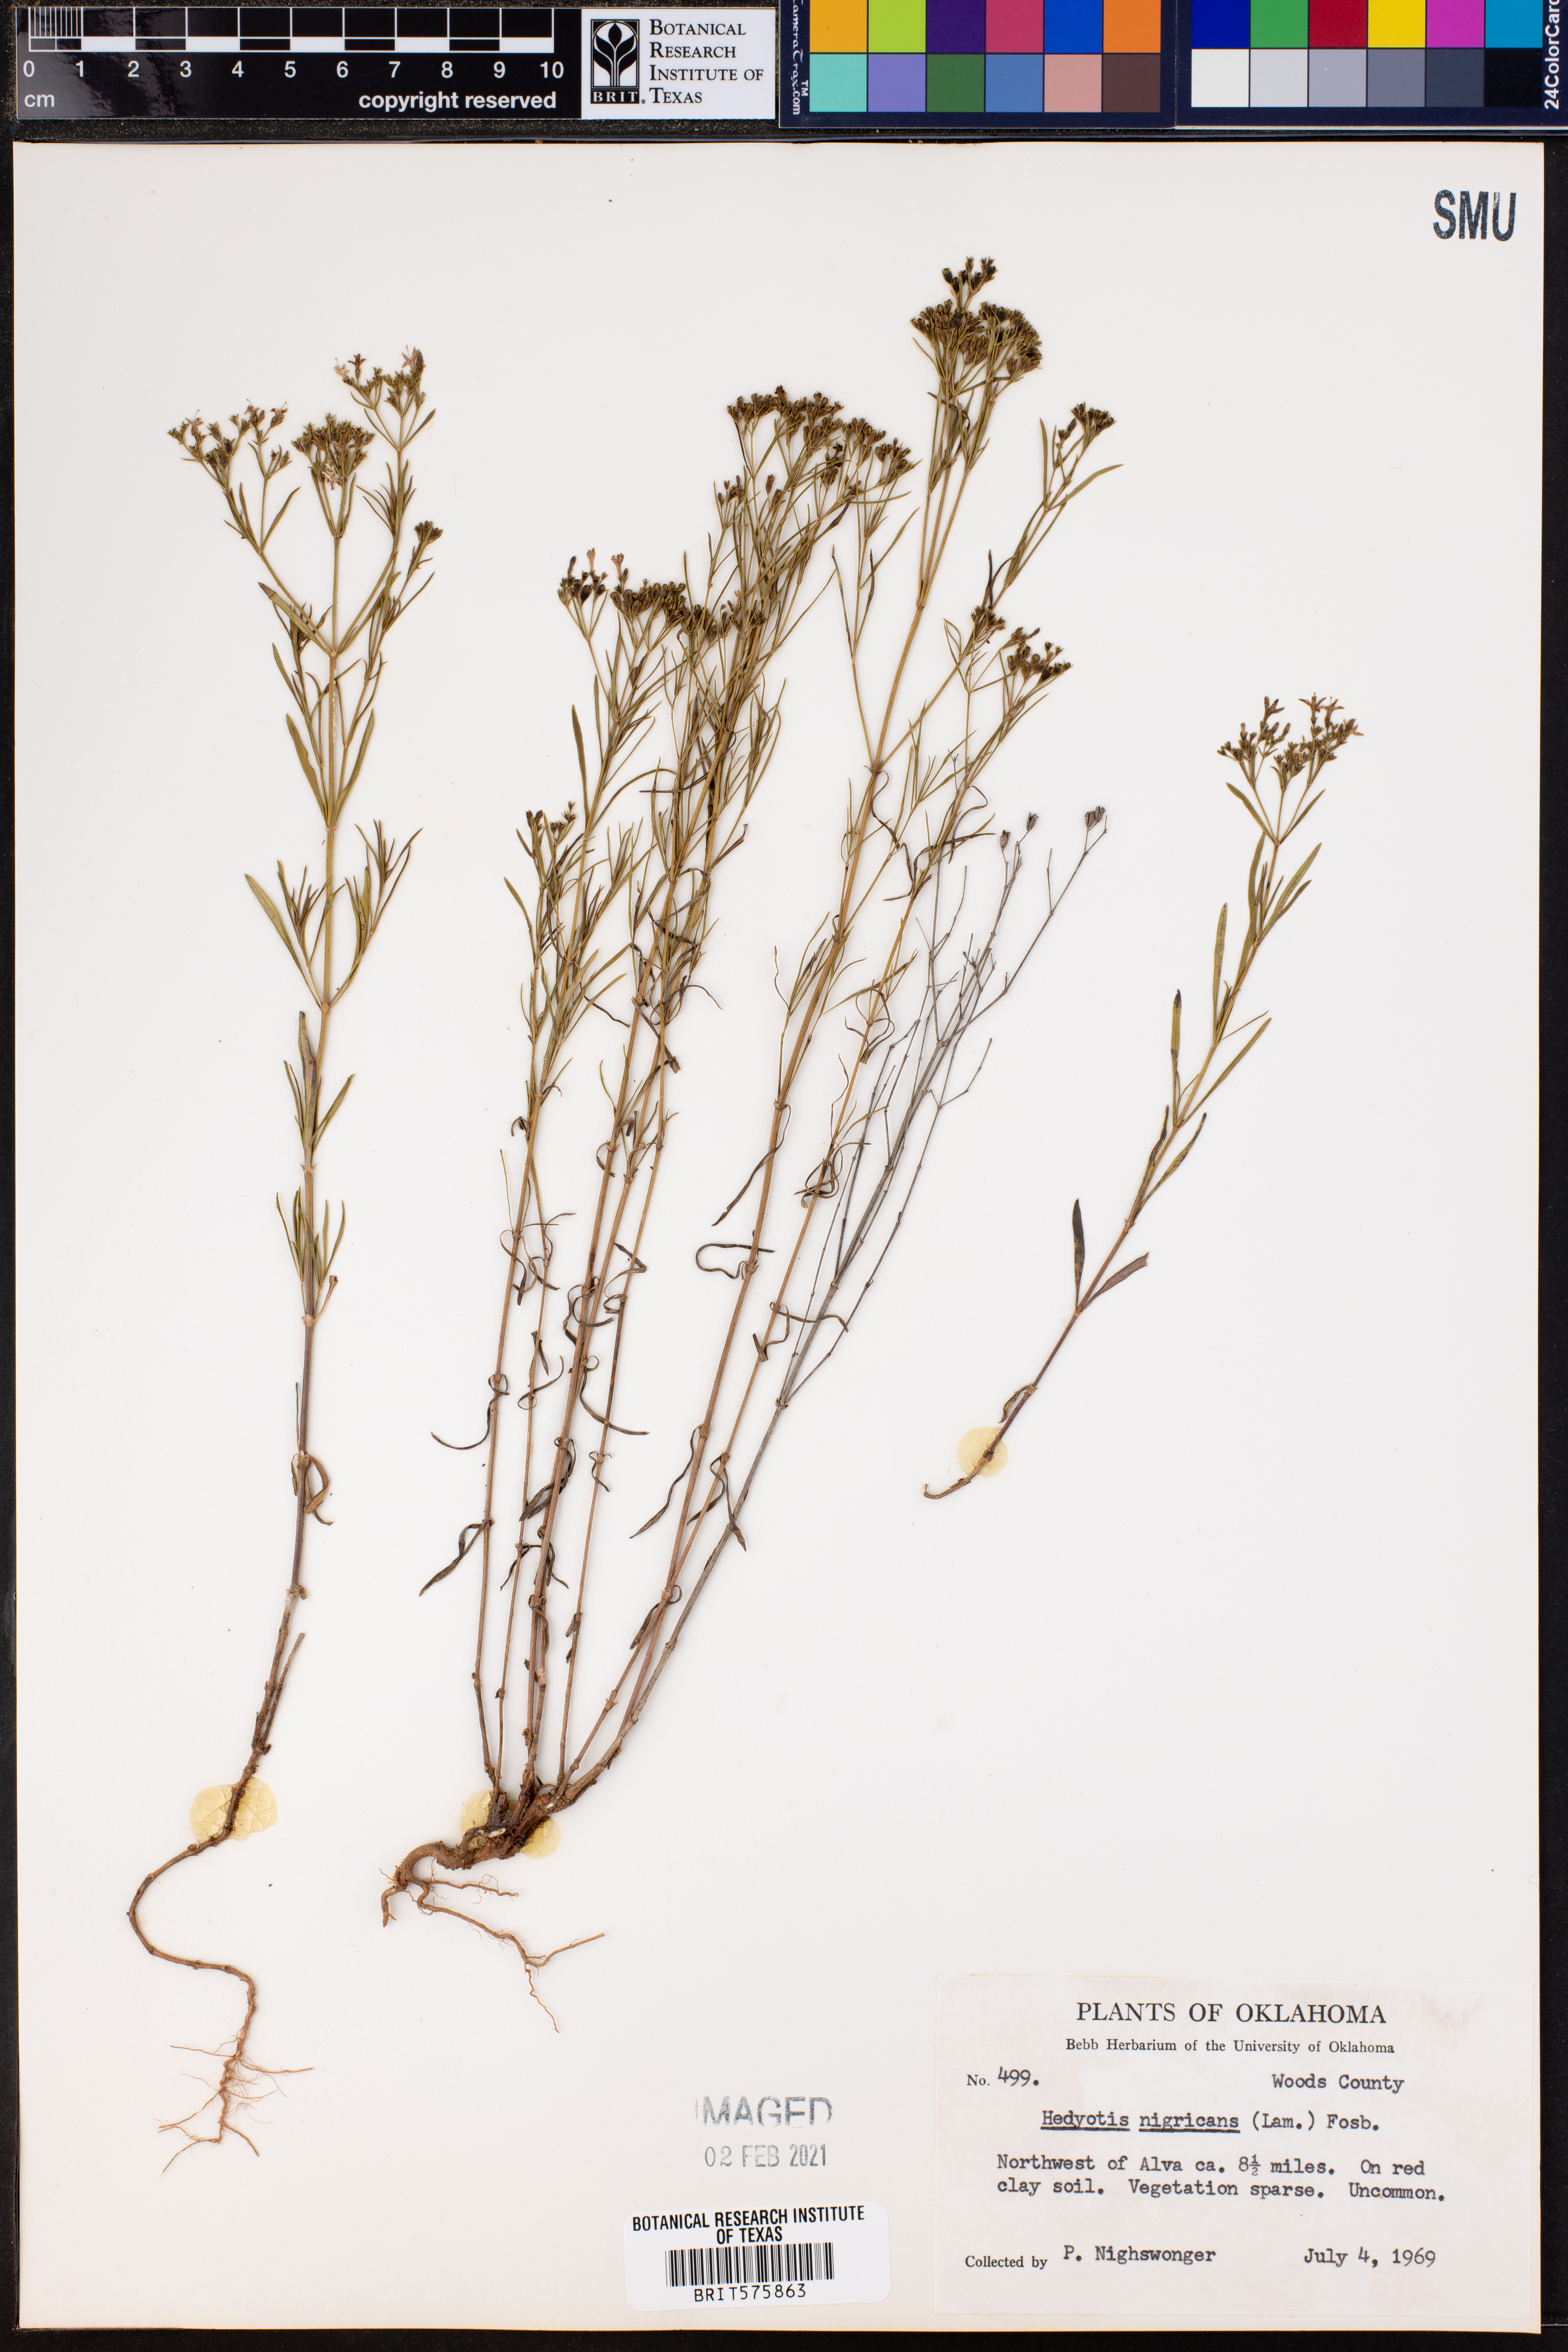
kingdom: Plantae
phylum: Tracheophyta
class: Magnoliopsida
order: Gentianales
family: Rubiaceae
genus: Stenaria
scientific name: Stenaria nigricans
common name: Diamondflowers
